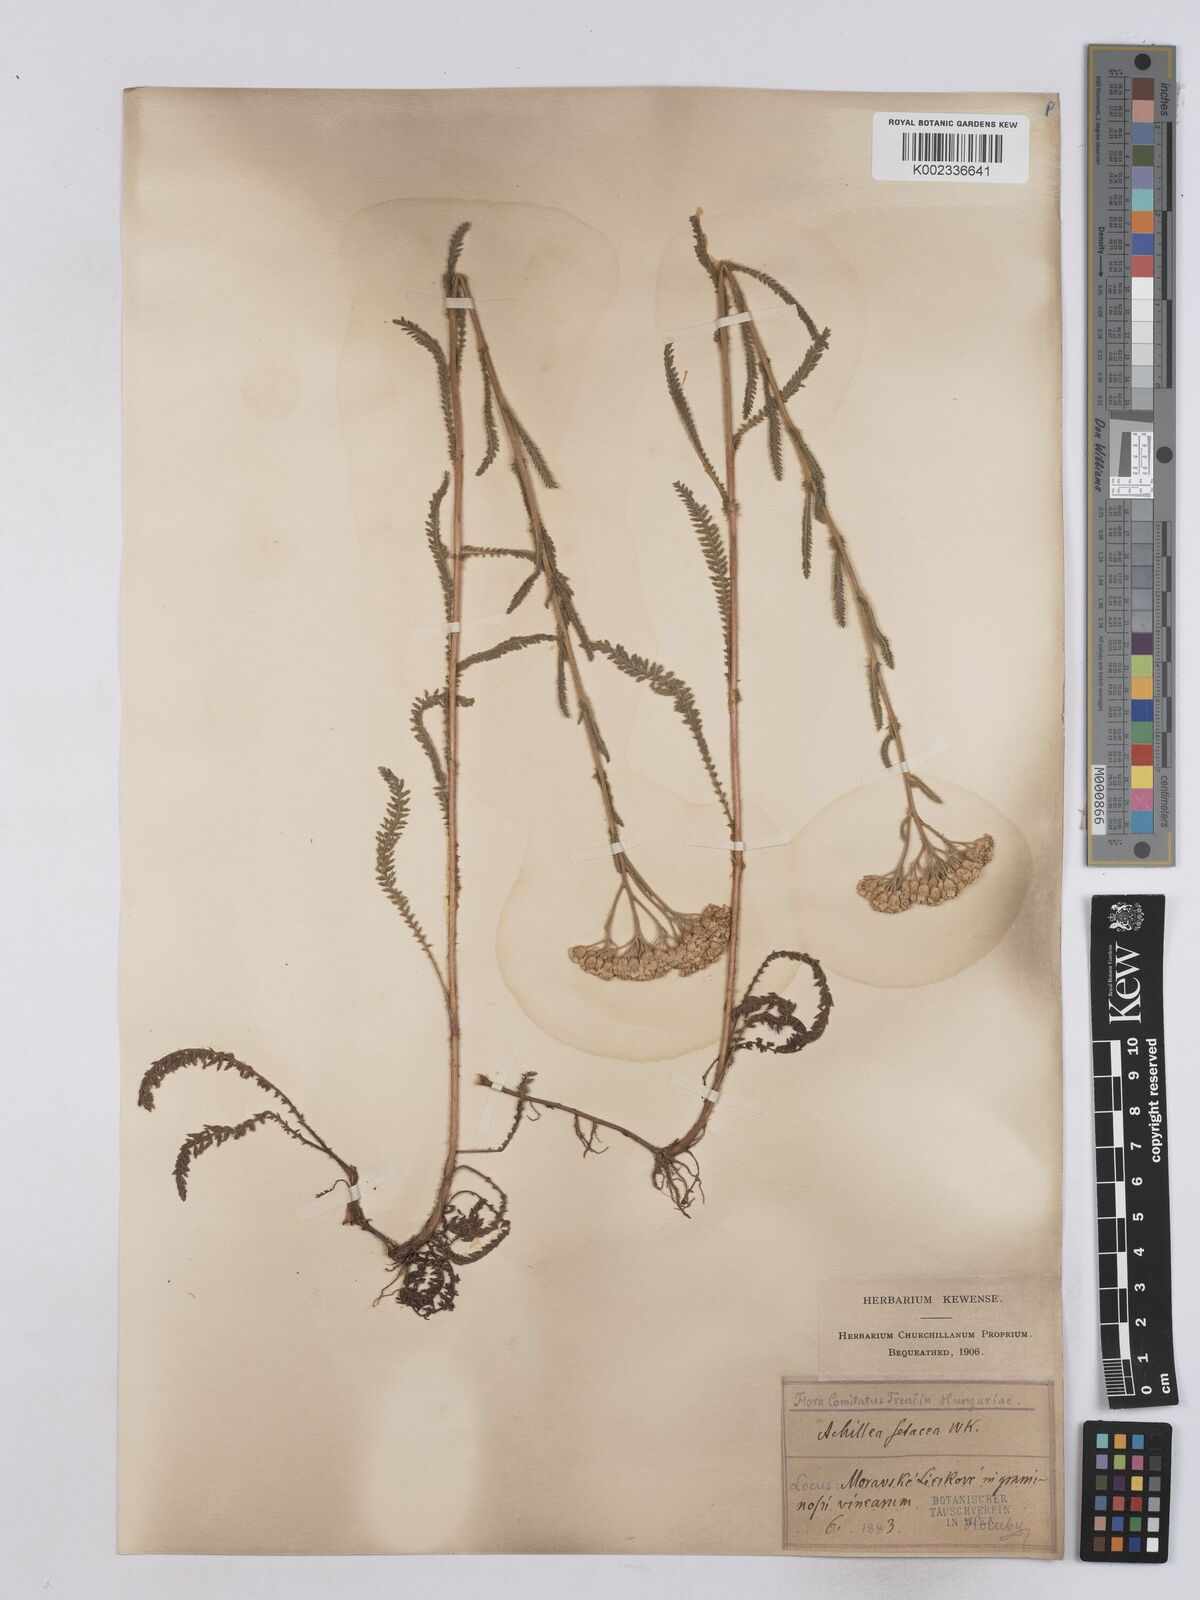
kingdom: Plantae
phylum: Tracheophyta
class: Magnoliopsida
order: Asterales
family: Asteraceae
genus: Achillea
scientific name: Achillea setacea
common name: Bristly yarrow
